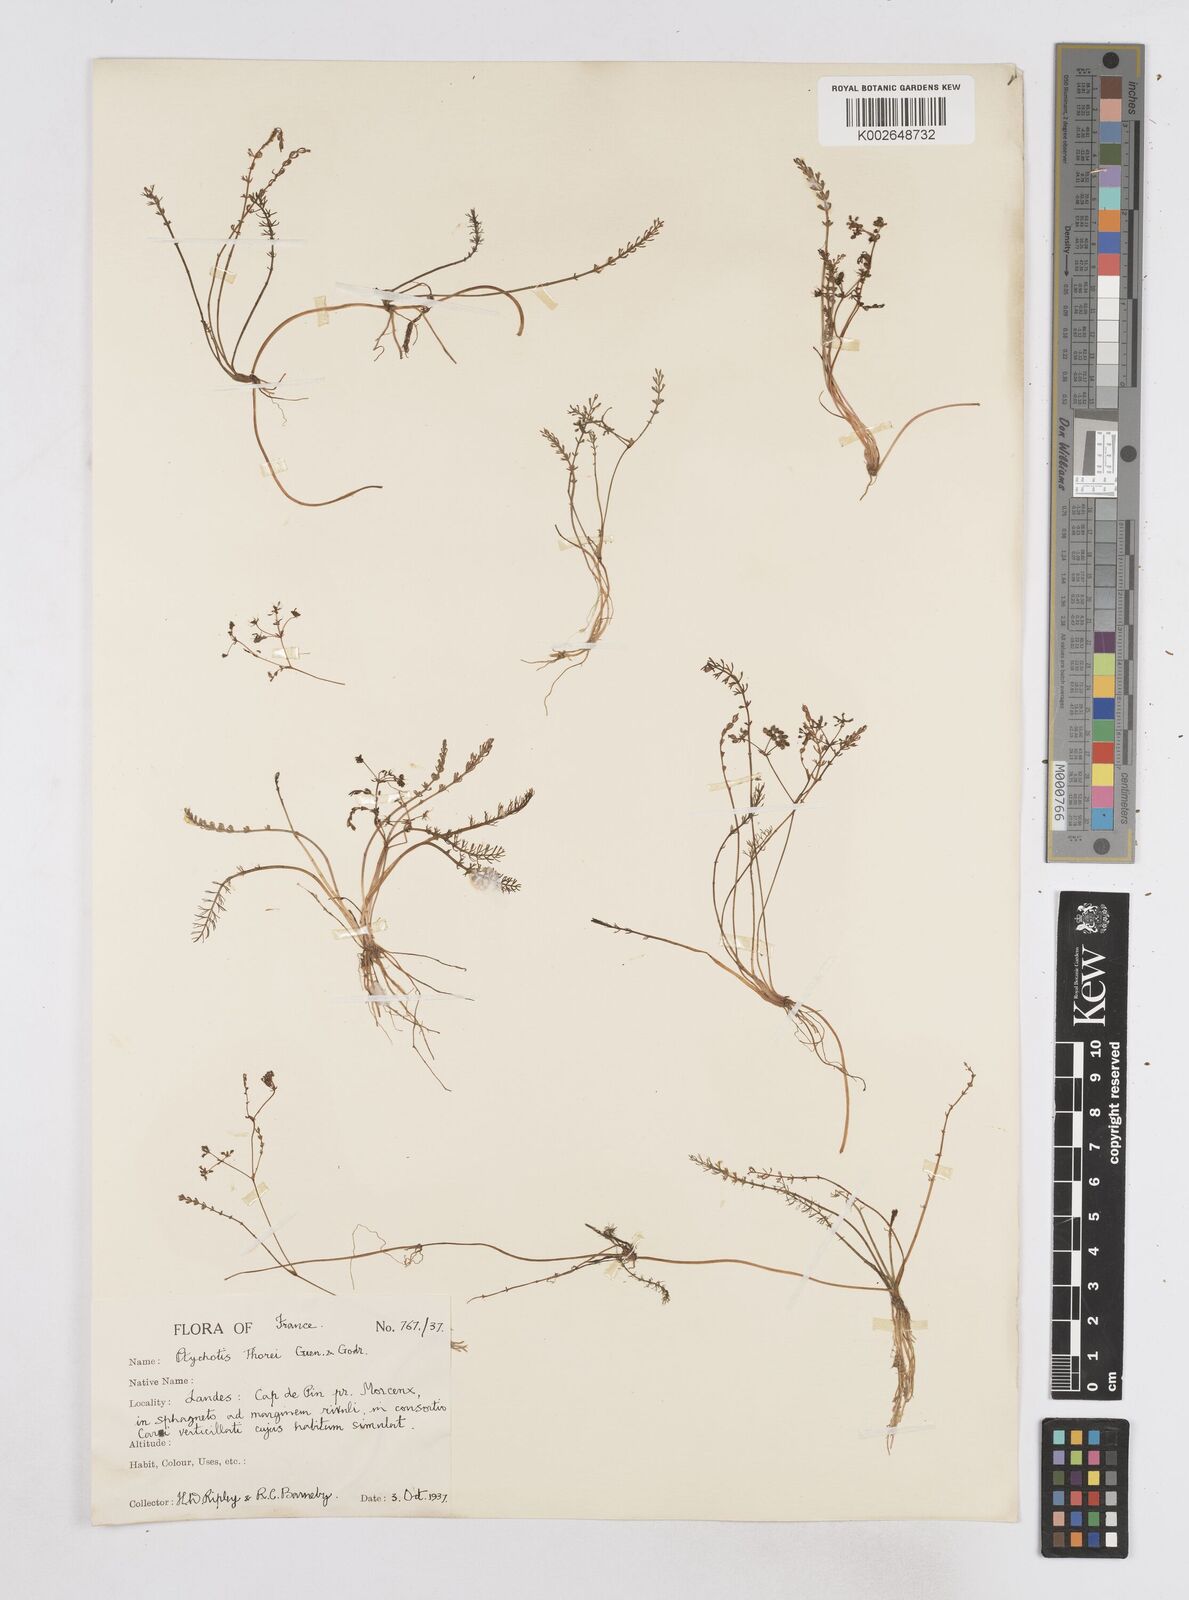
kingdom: Plantae
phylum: Tracheophyta
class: Magnoliopsida
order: Apiales
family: Apiaceae
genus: Caropsis
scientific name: Caropsis verticillatoinundata
